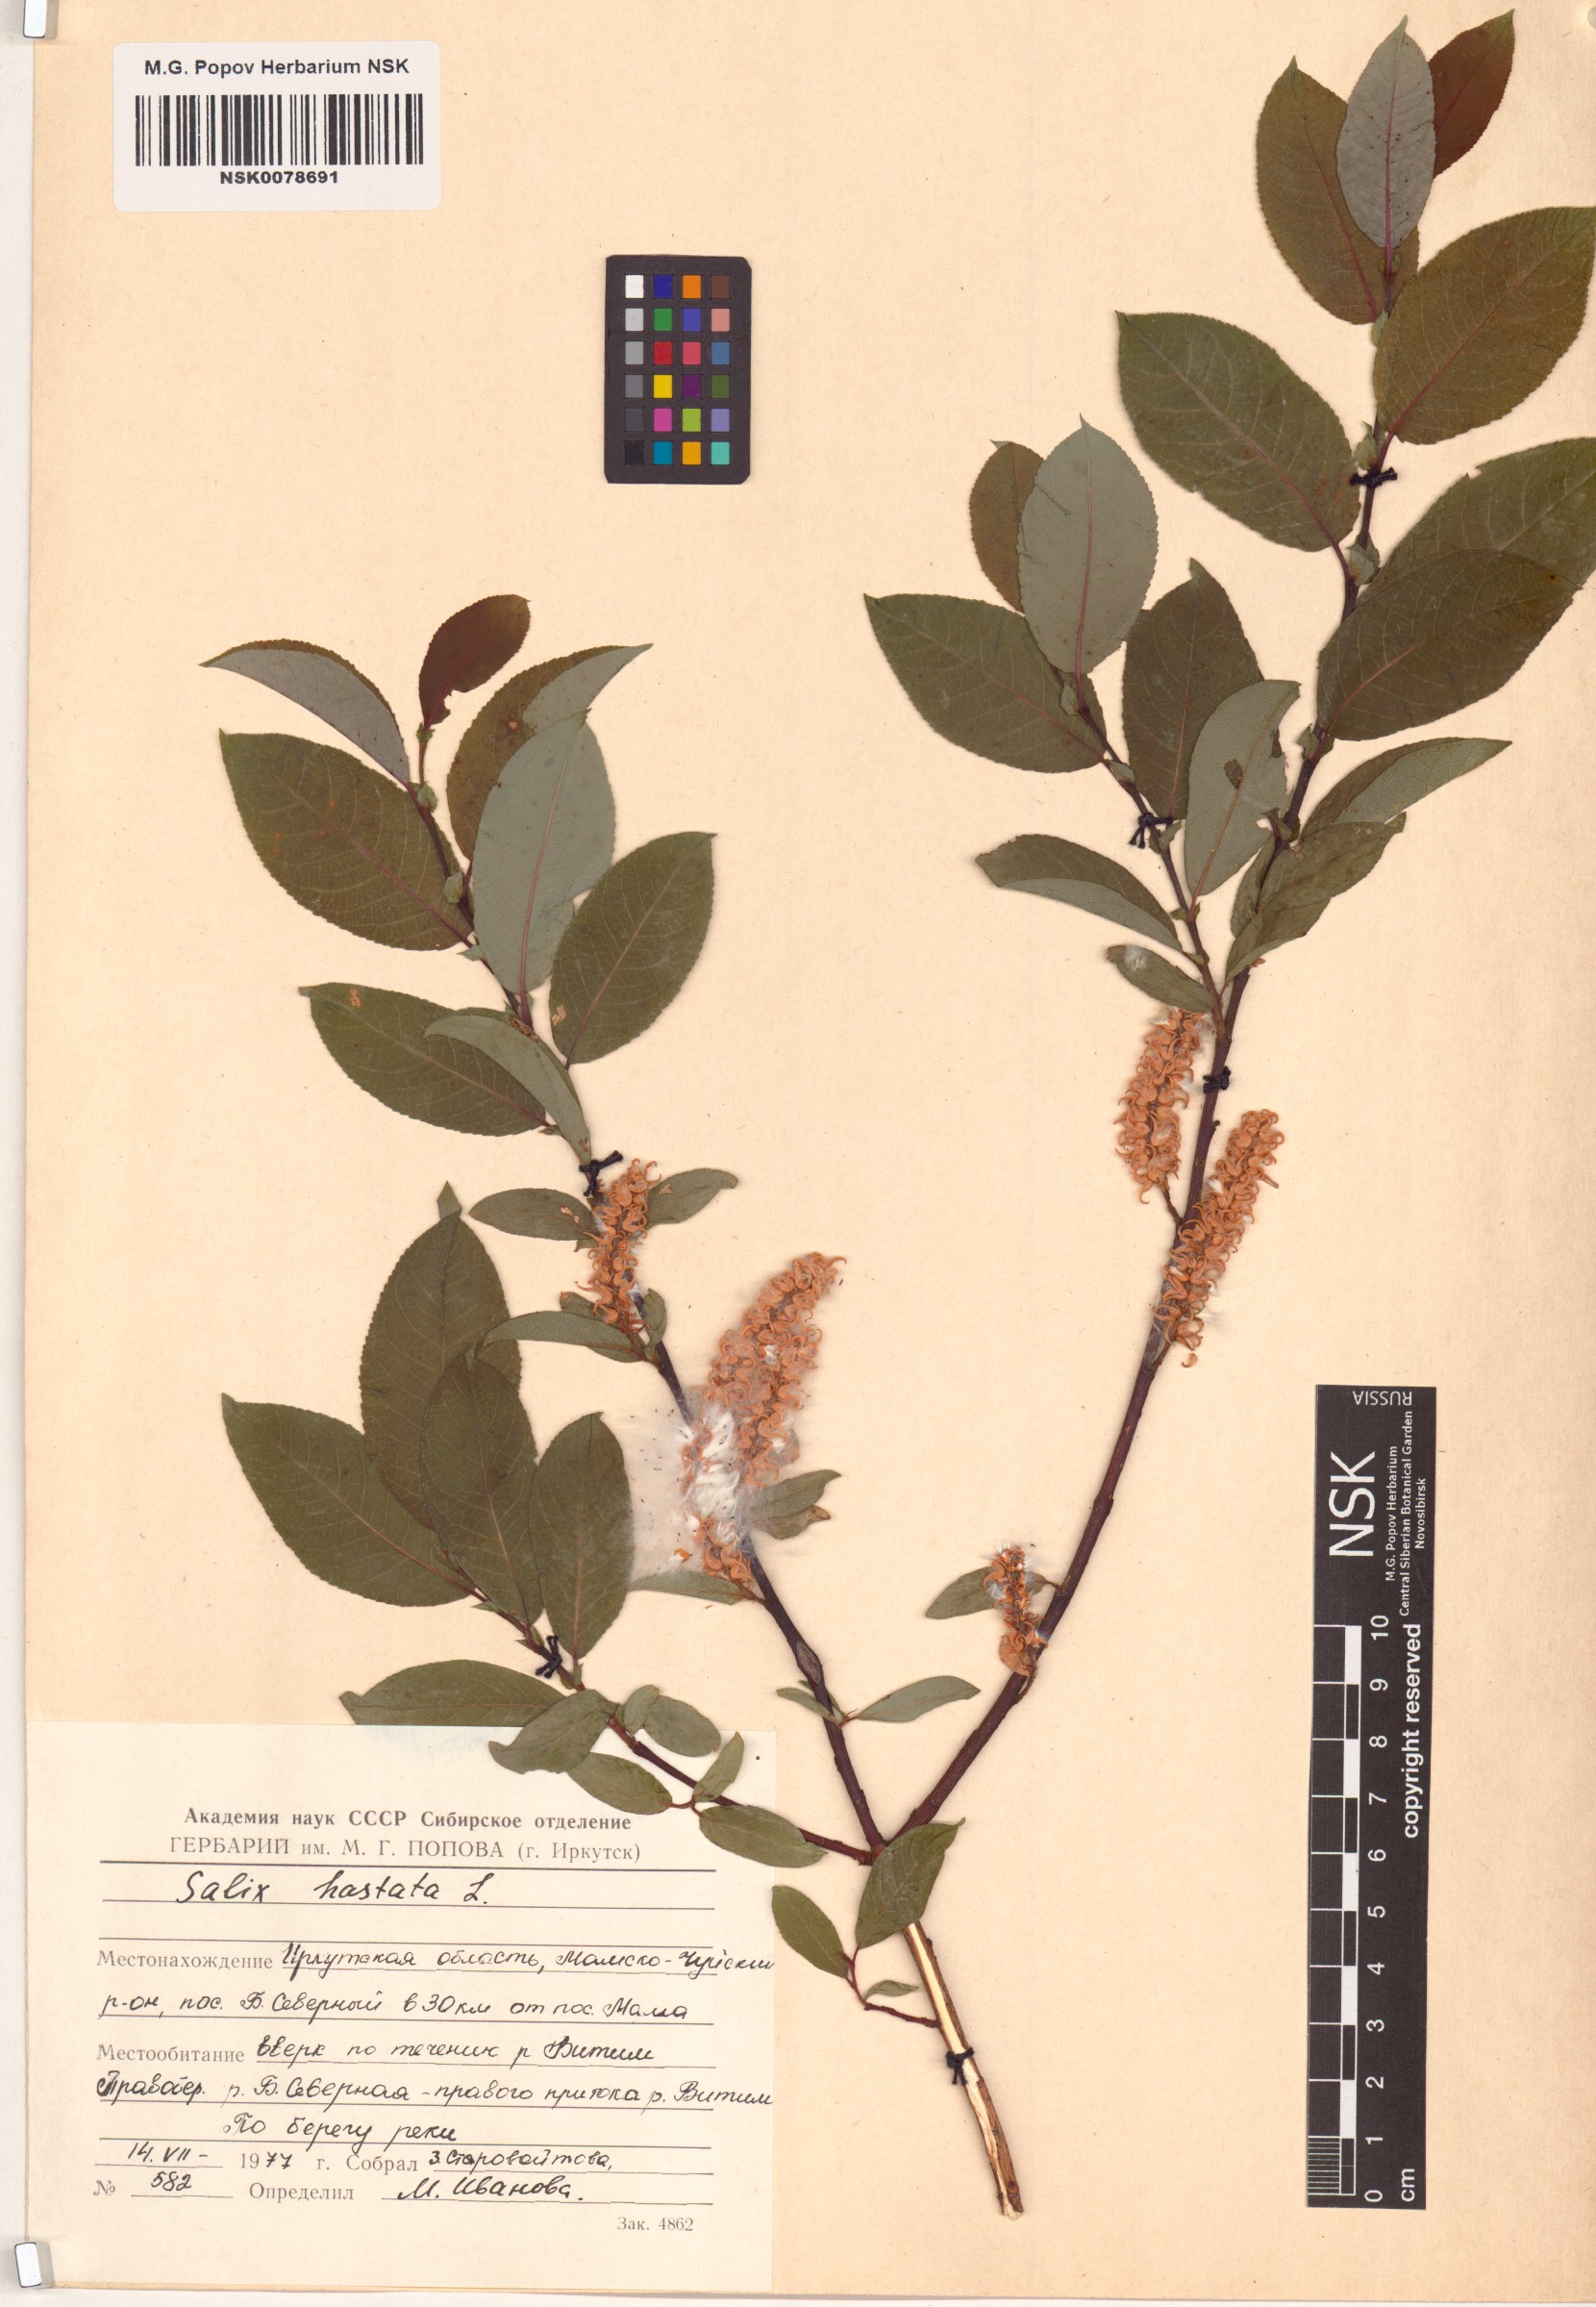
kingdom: Plantae
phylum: Tracheophyta
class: Magnoliopsida
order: Malpighiales
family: Salicaceae
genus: Salix
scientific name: Salix hastata
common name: Halberd willow
